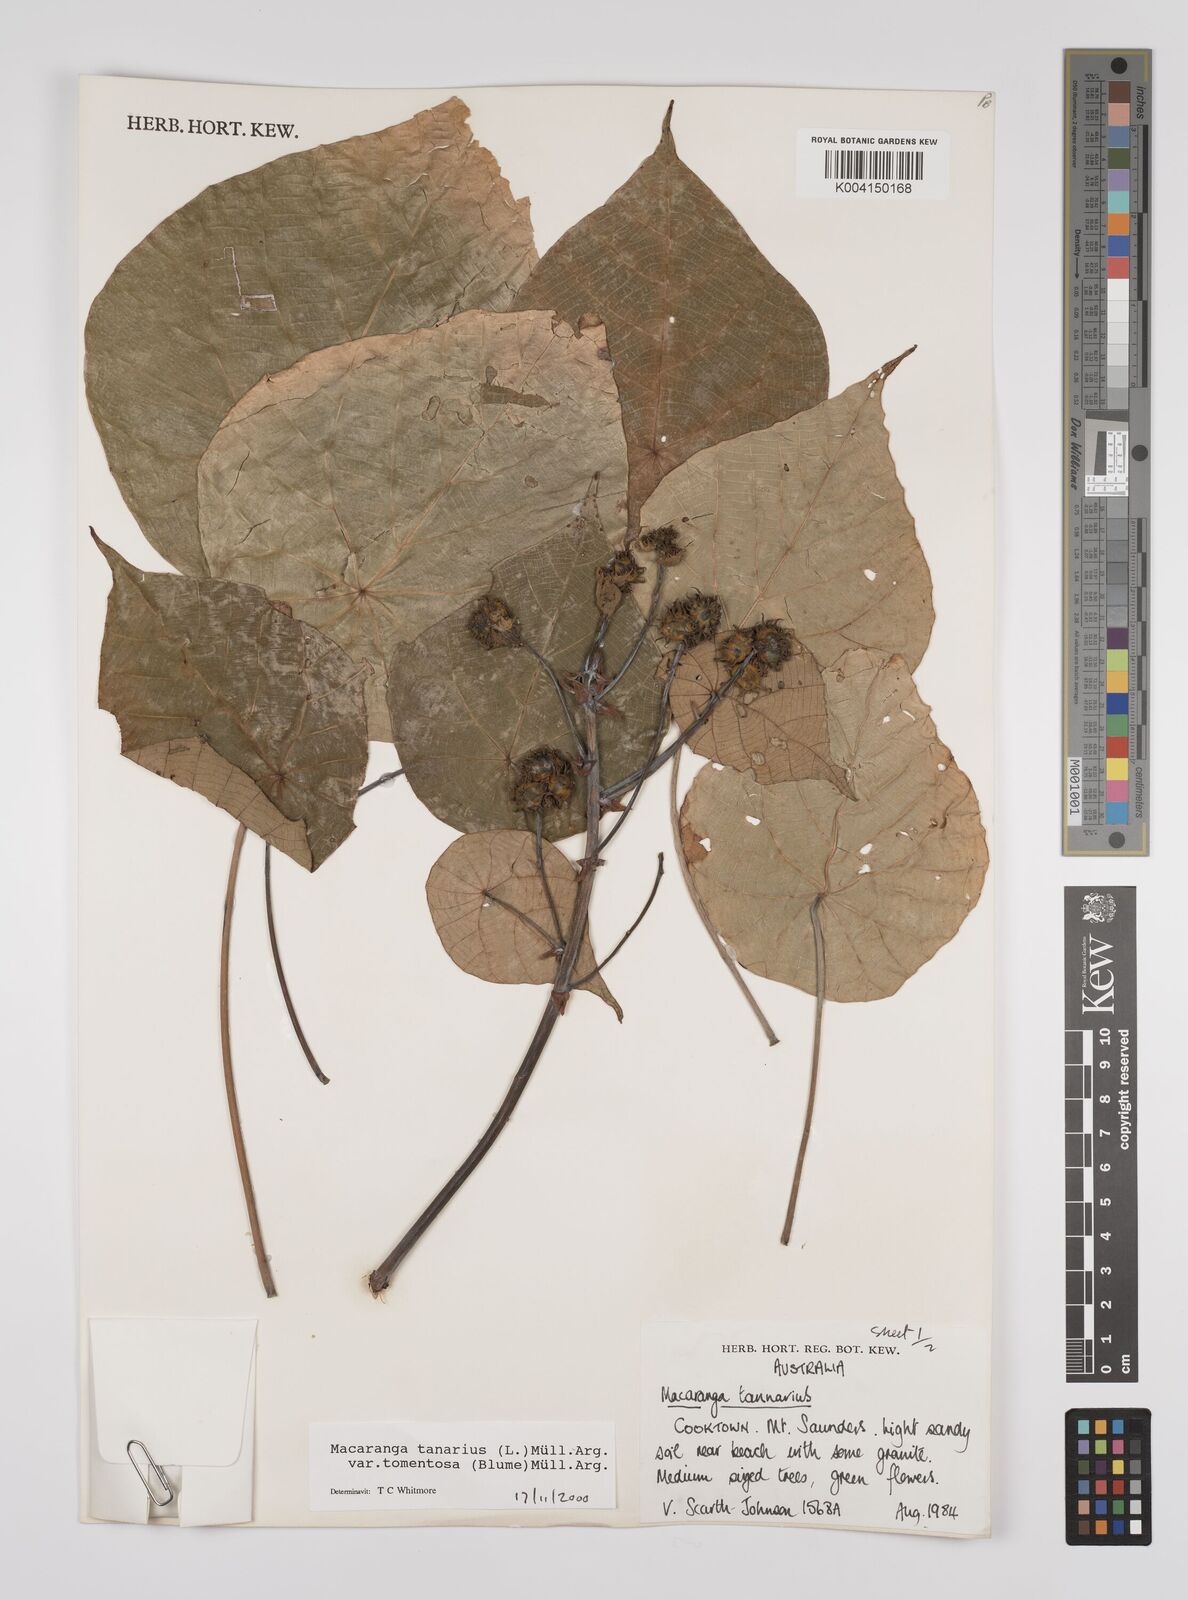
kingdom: Plantae
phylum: Tracheophyta
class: Magnoliopsida
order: Malpighiales
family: Euphorbiaceae
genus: Macaranga
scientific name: Macaranga tanarius
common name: Parasol leaf tree
